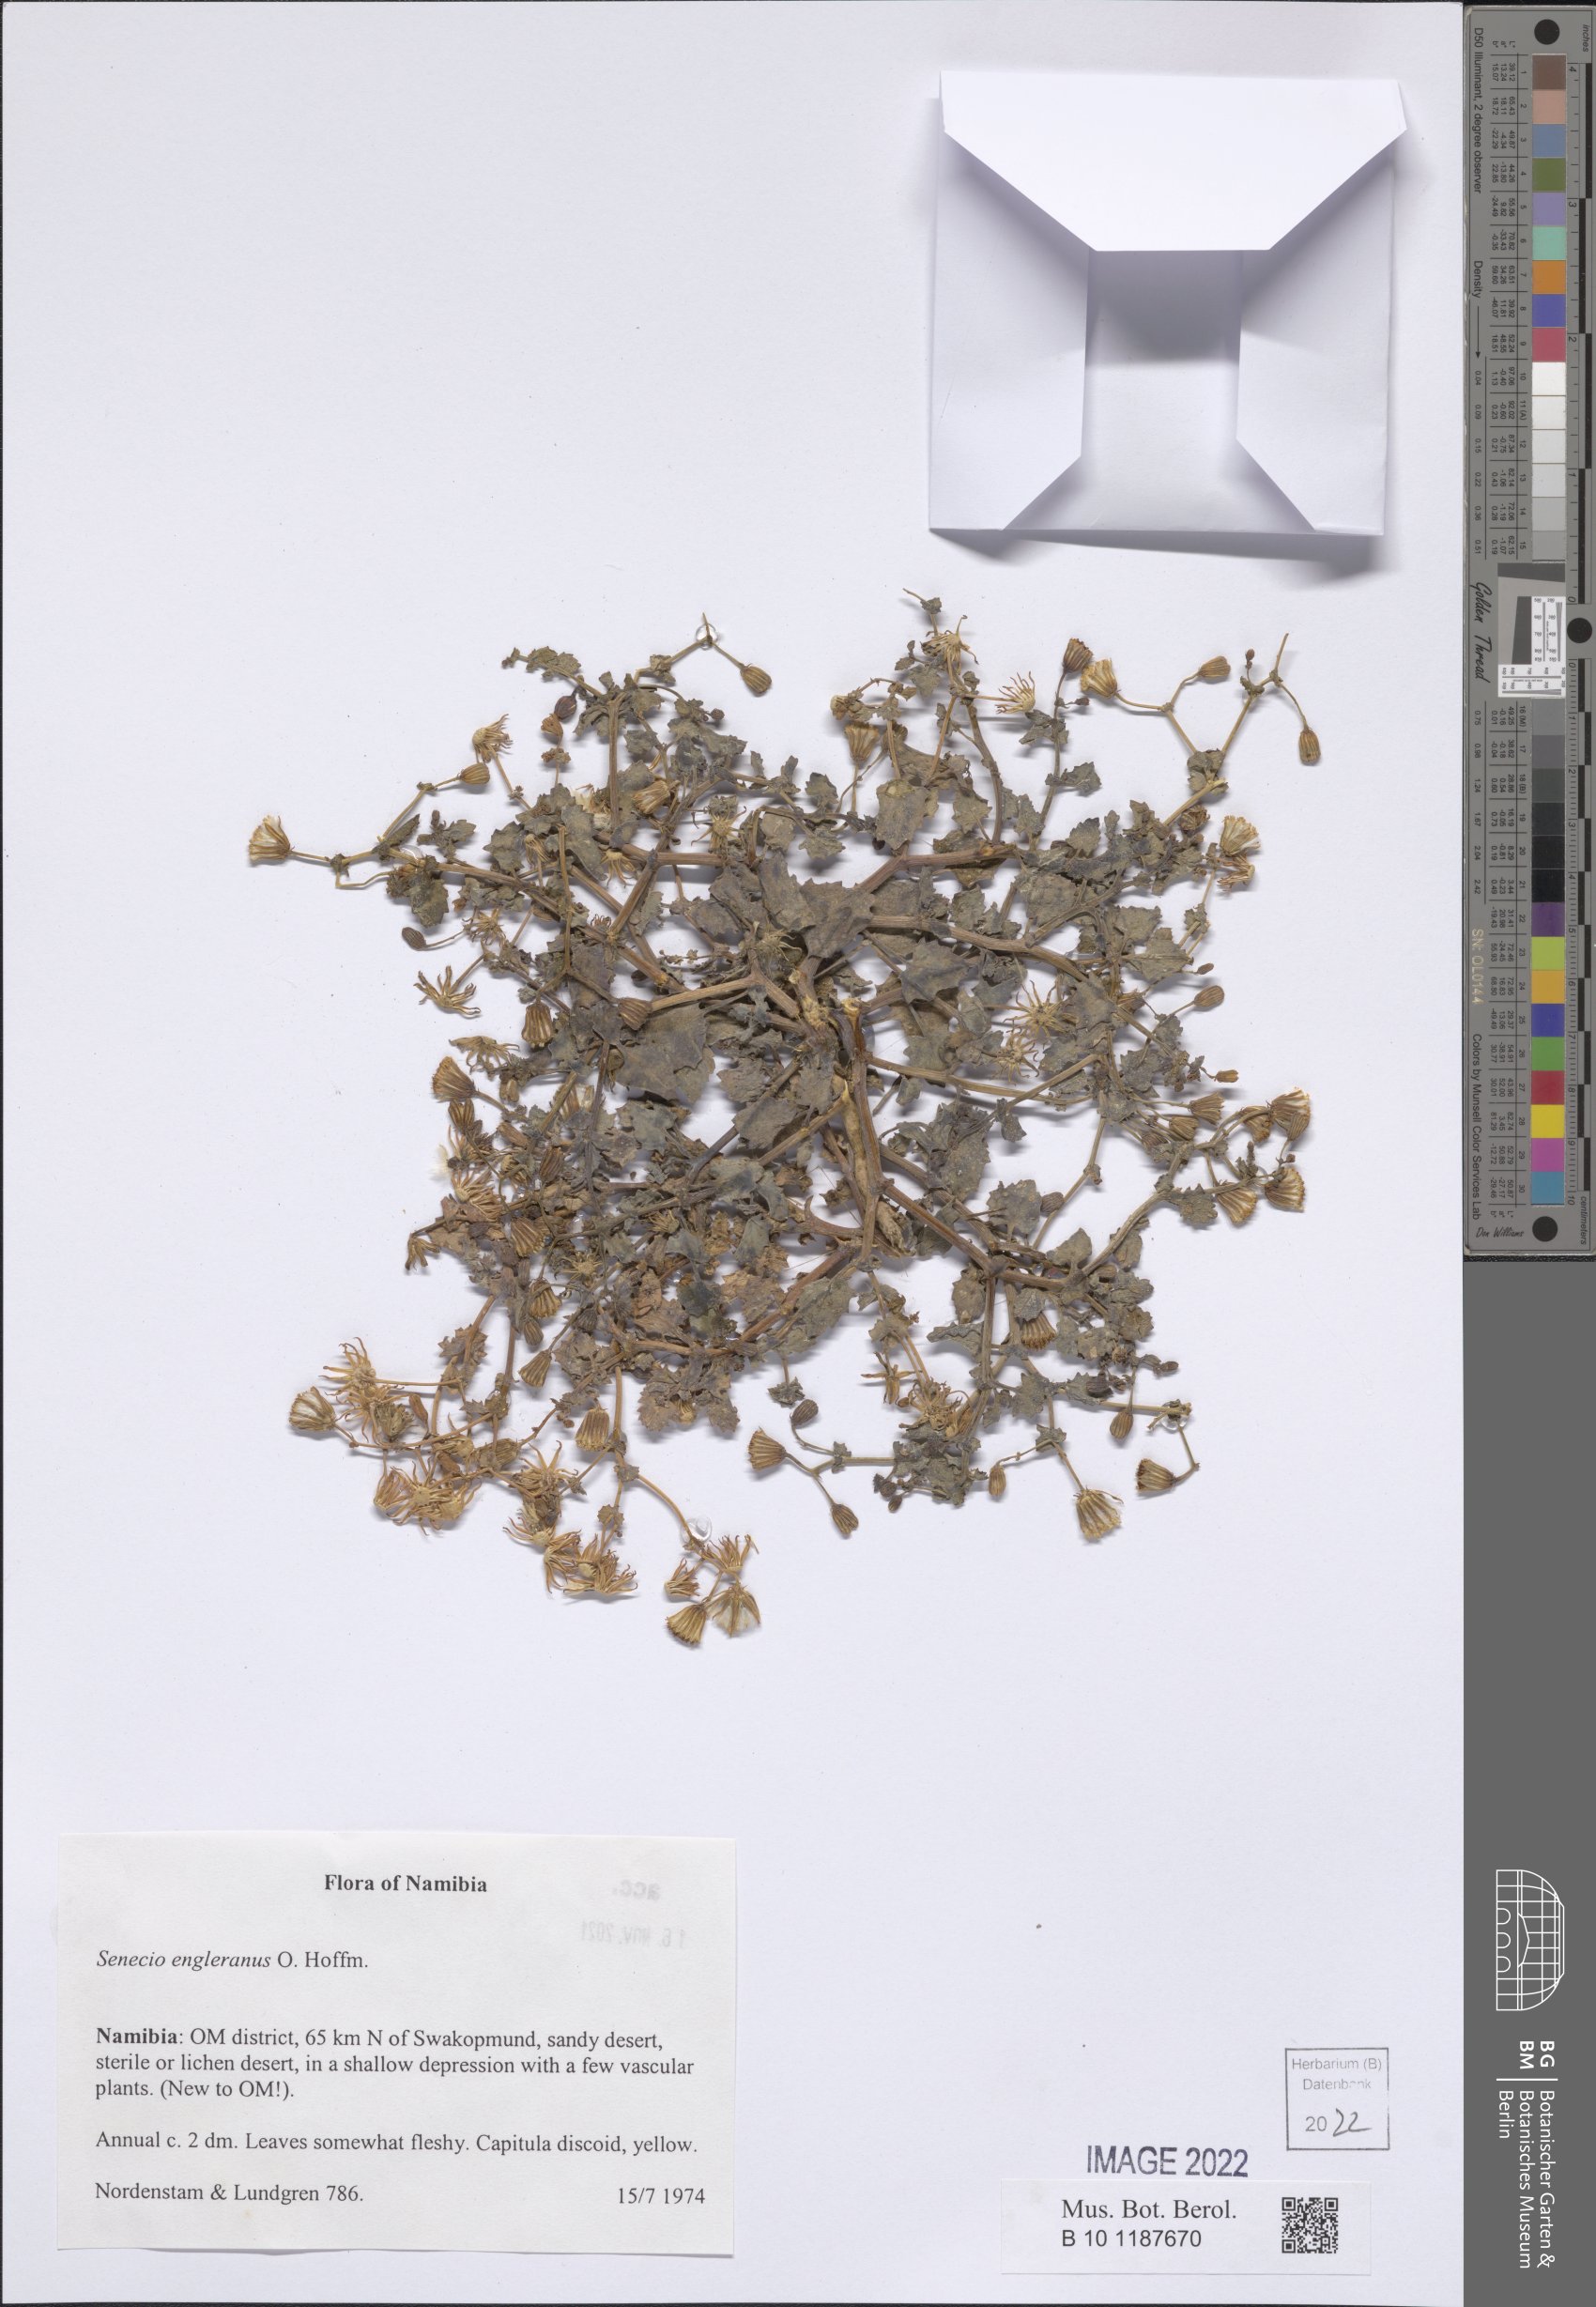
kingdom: Plantae
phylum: Tracheophyta
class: Magnoliopsida
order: Asterales
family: Asteraceae
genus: Senecio
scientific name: Senecio englerianus
